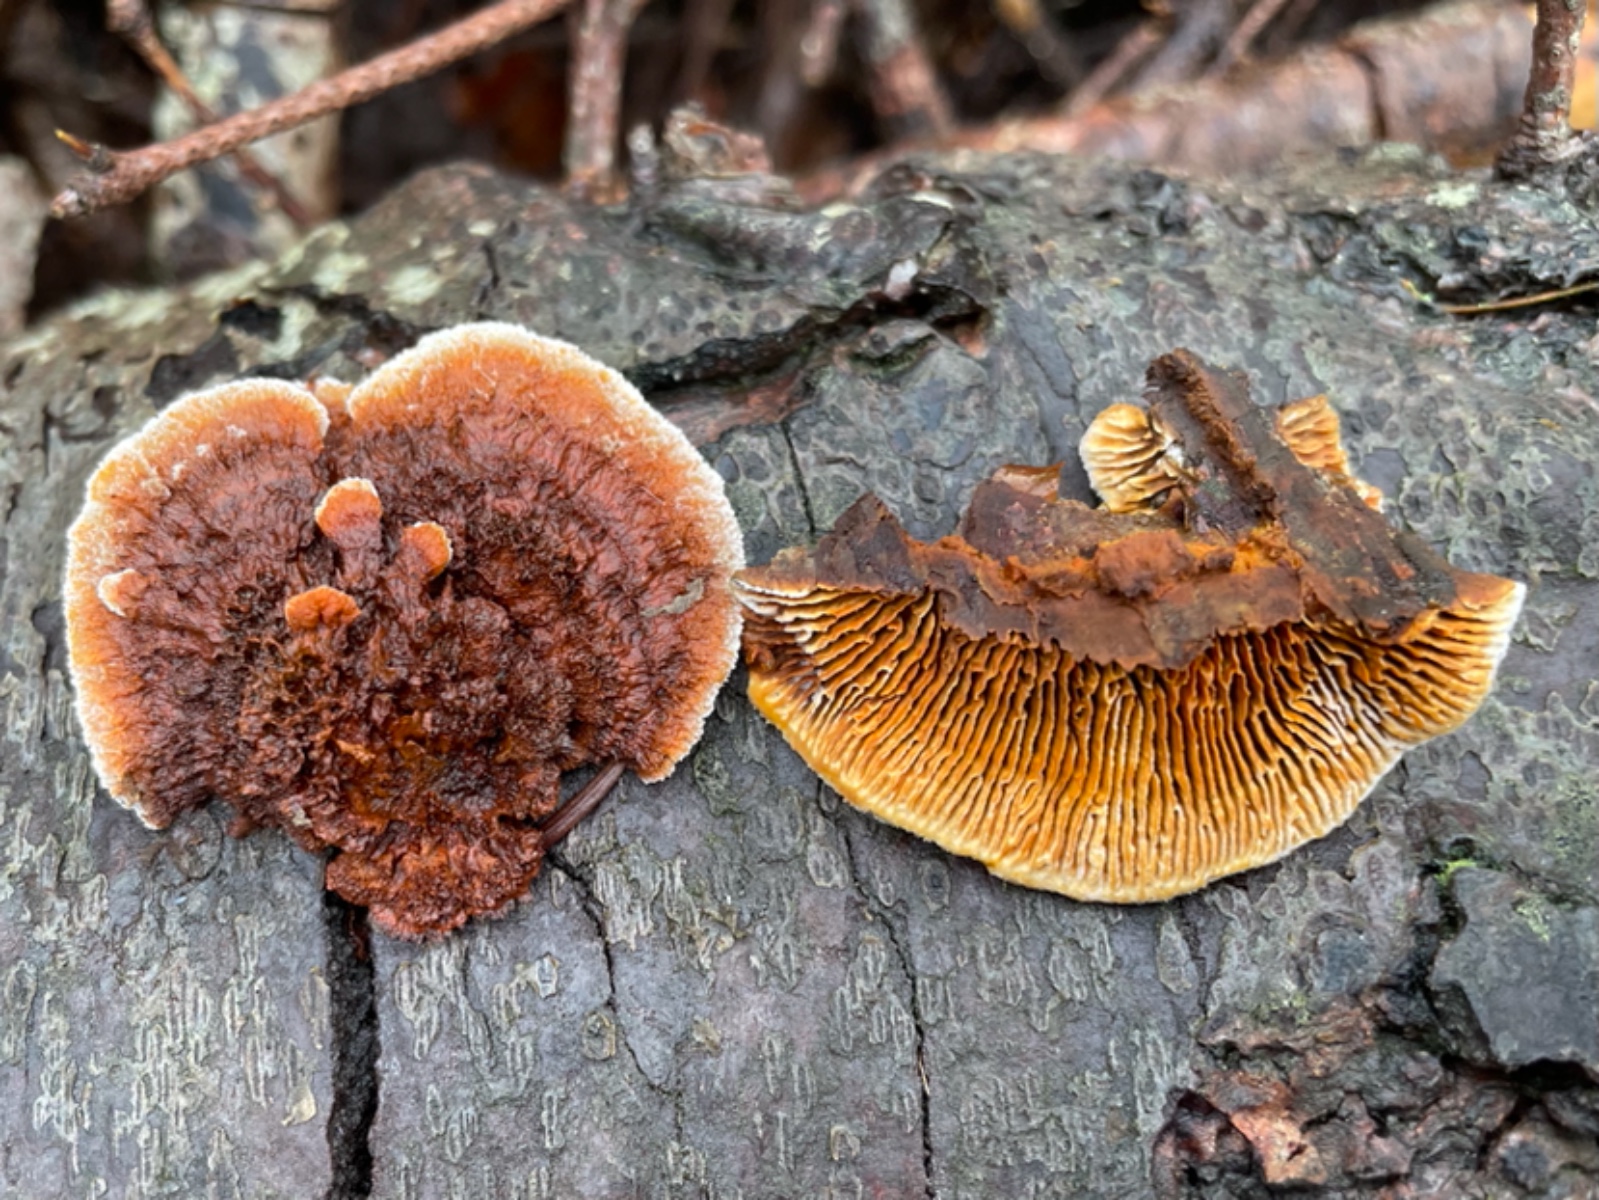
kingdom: Fungi
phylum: Basidiomycota
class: Agaricomycetes
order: Gloeophyllales
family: Gloeophyllaceae
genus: Gloeophyllum
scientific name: Gloeophyllum sepiarium
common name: fyrre-korkhat
